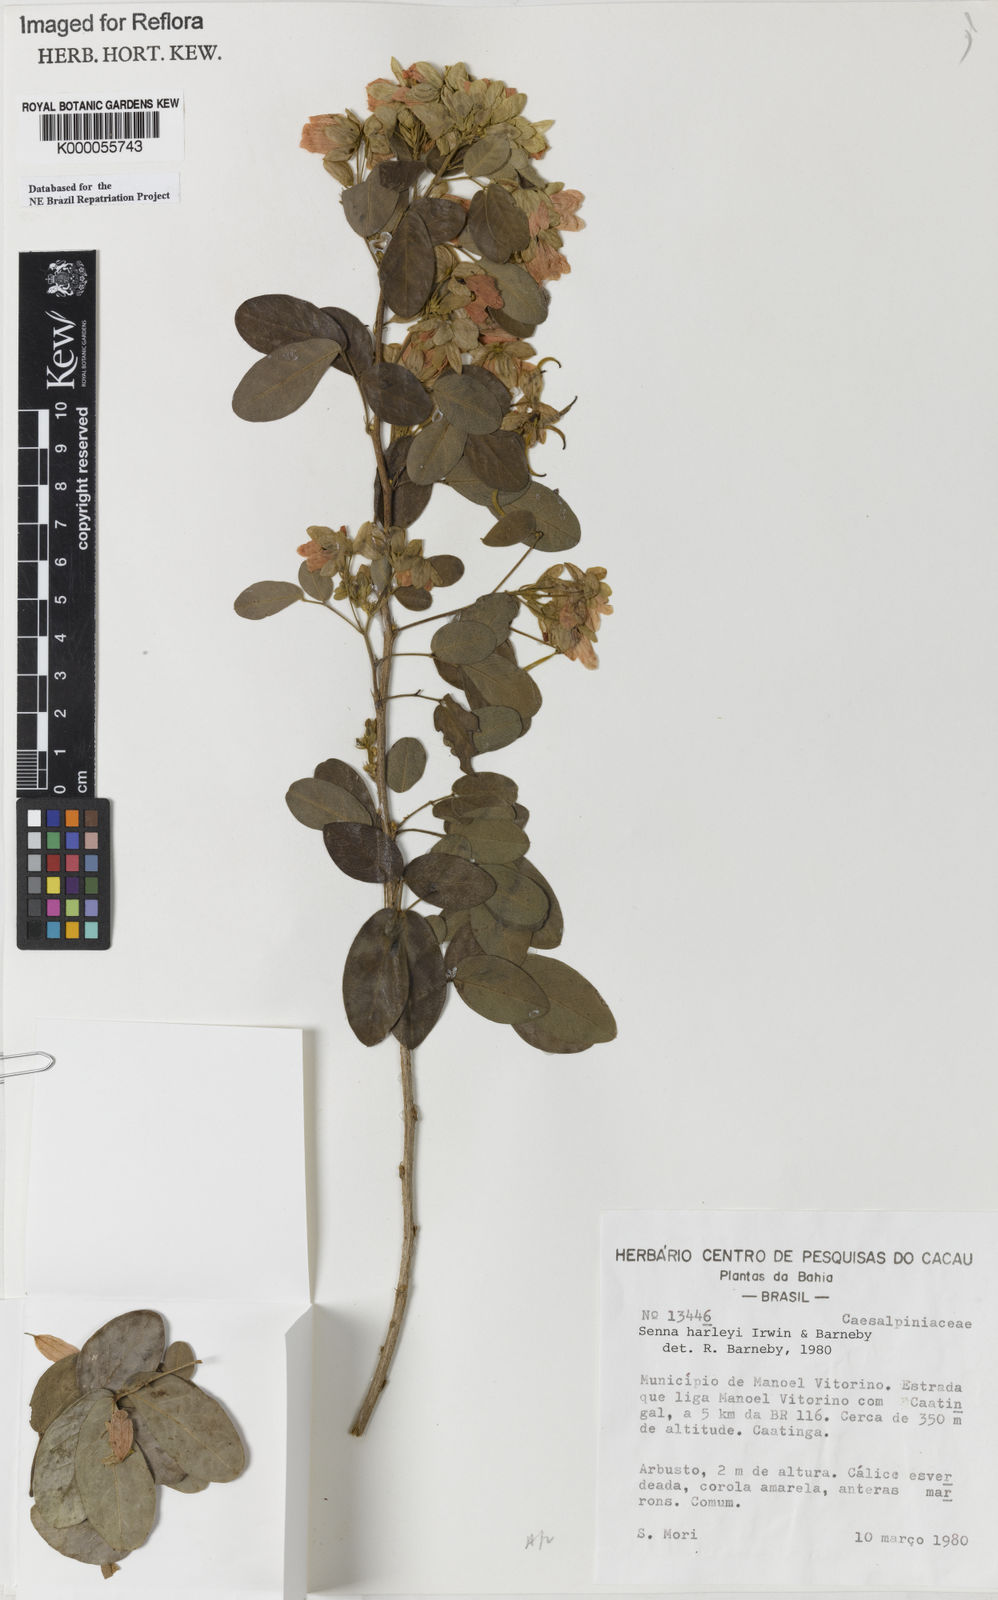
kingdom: Plantae
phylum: Tracheophyta
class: Magnoliopsida
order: Fabales
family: Fabaceae
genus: Senna
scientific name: Senna harleyi
